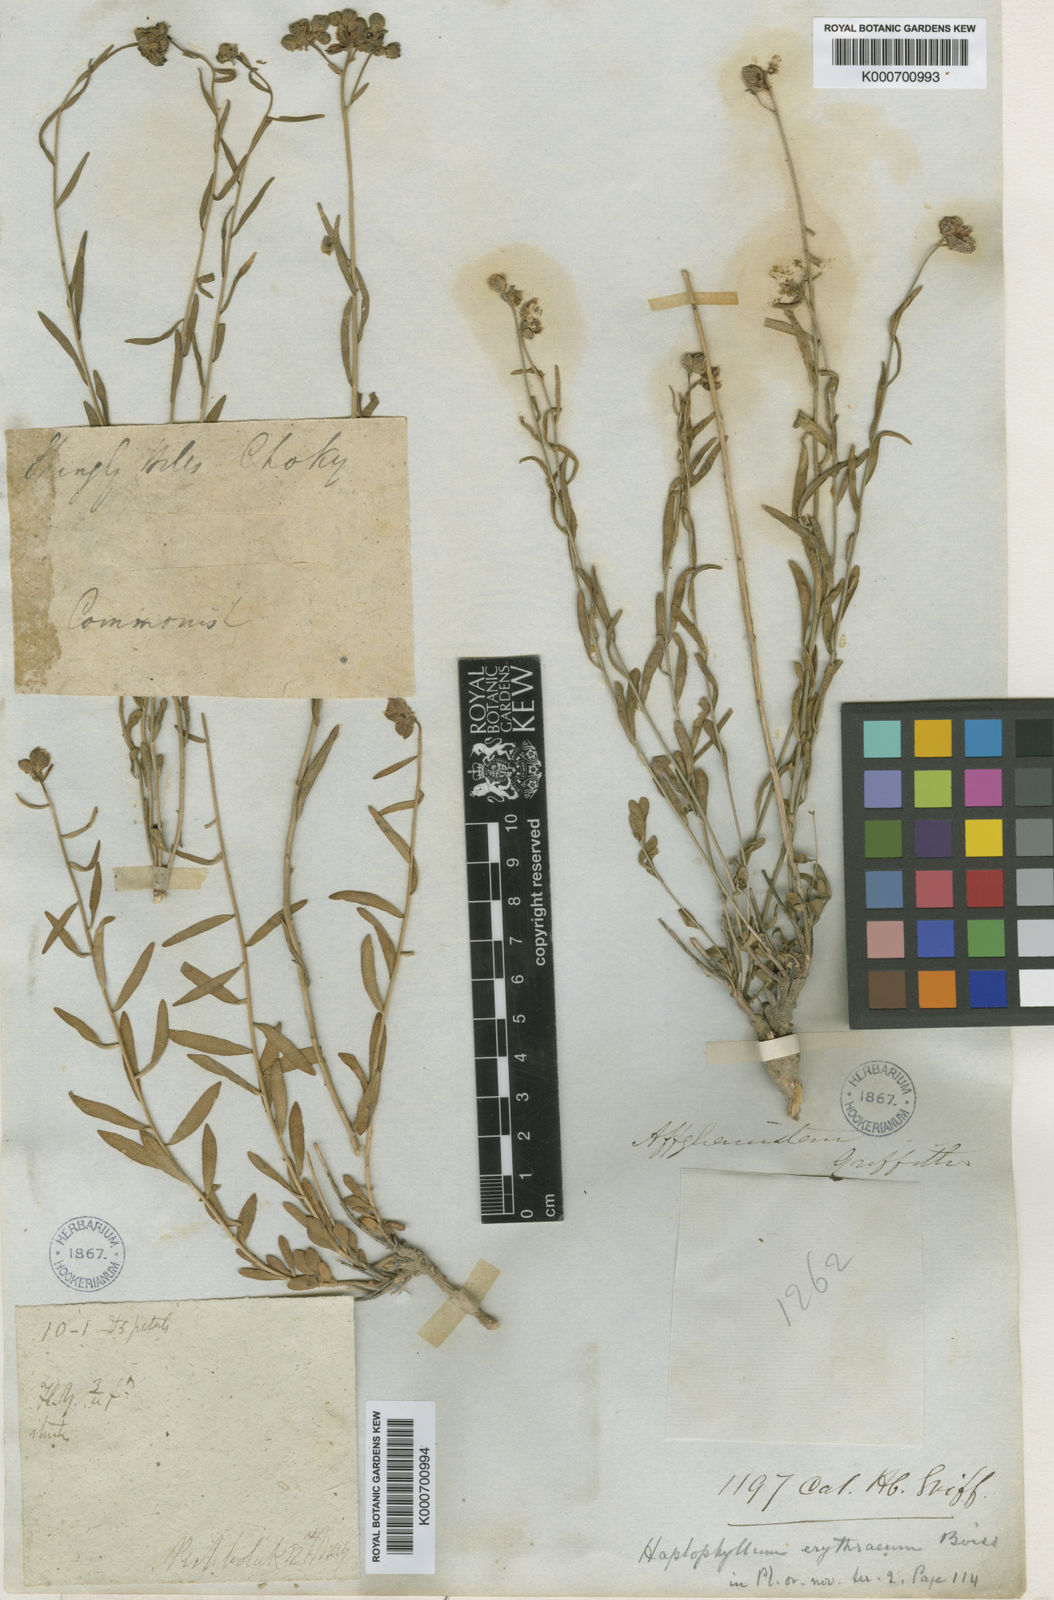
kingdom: Plantae
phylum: Tracheophyta
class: Magnoliopsida
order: Sapindales
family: Rutaceae
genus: Haplophyllum
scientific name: Haplophyllum erythraeum
